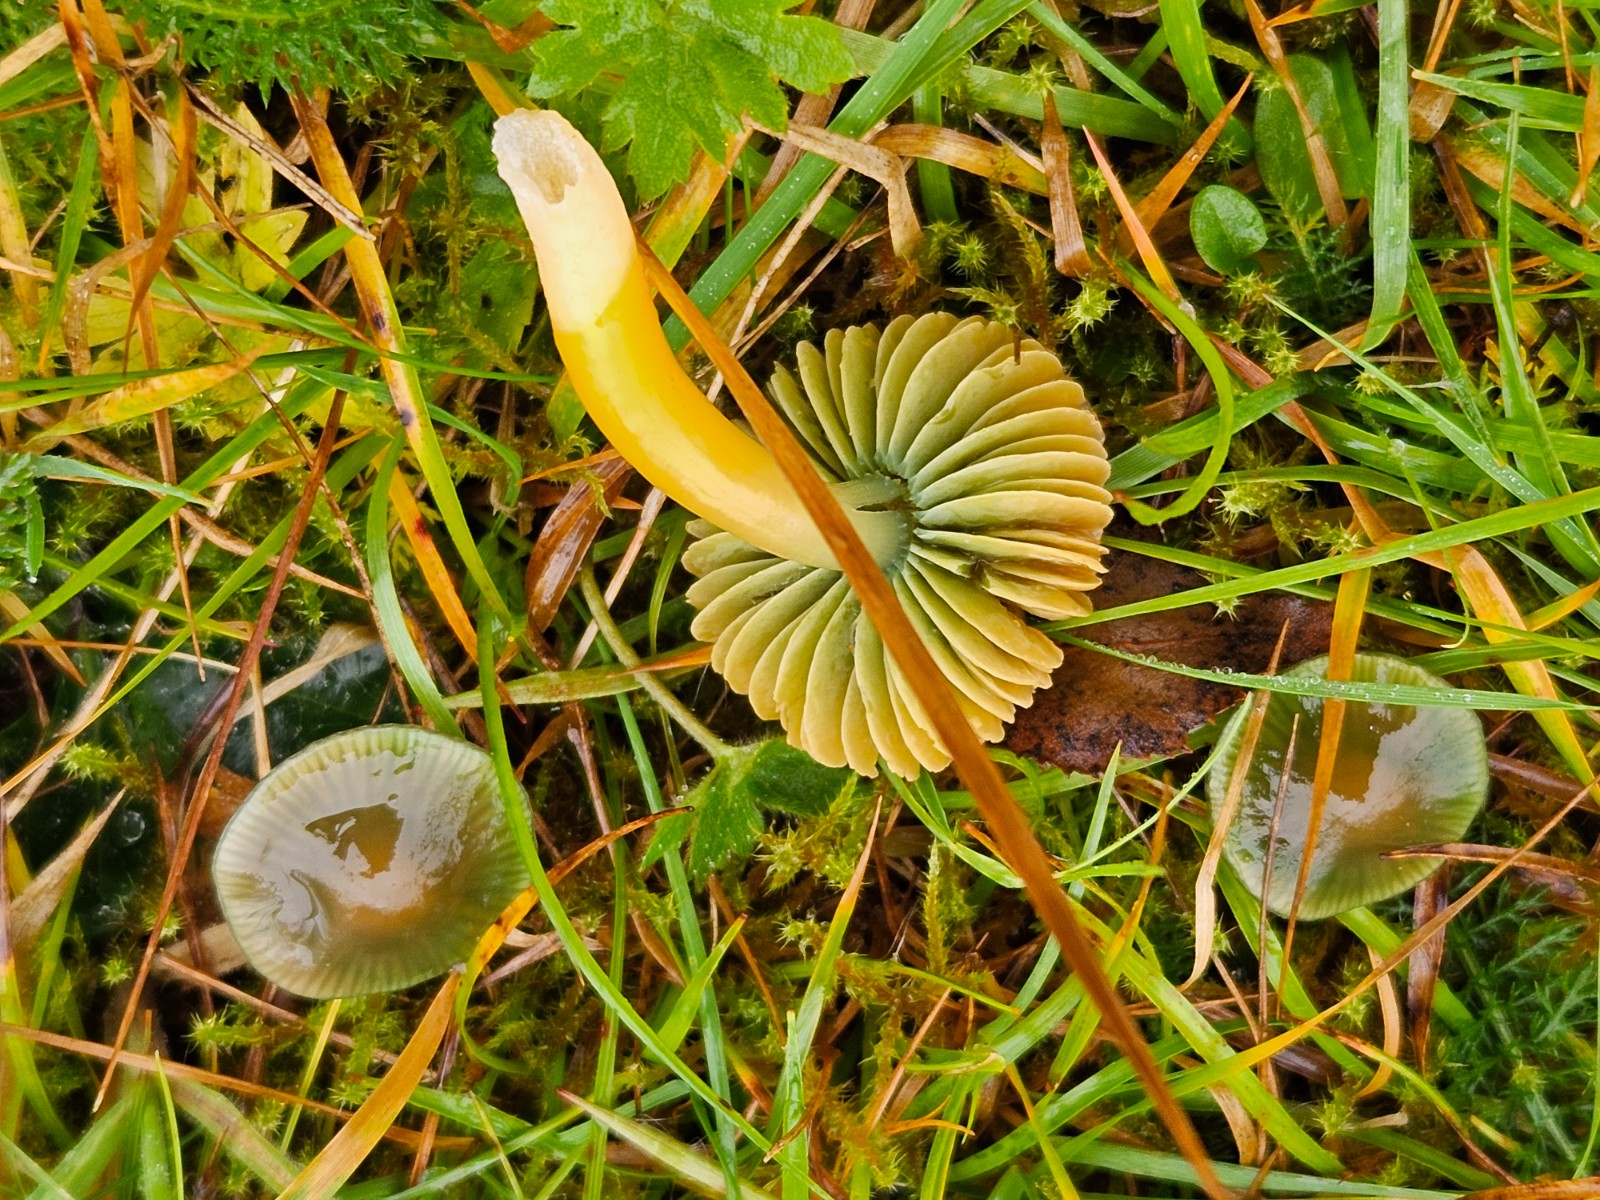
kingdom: Fungi
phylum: Basidiomycota
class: Agaricomycetes
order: Agaricales
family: Hygrophoraceae
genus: Gliophorus
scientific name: Gliophorus psittacinus
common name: papegøje-vokshat
